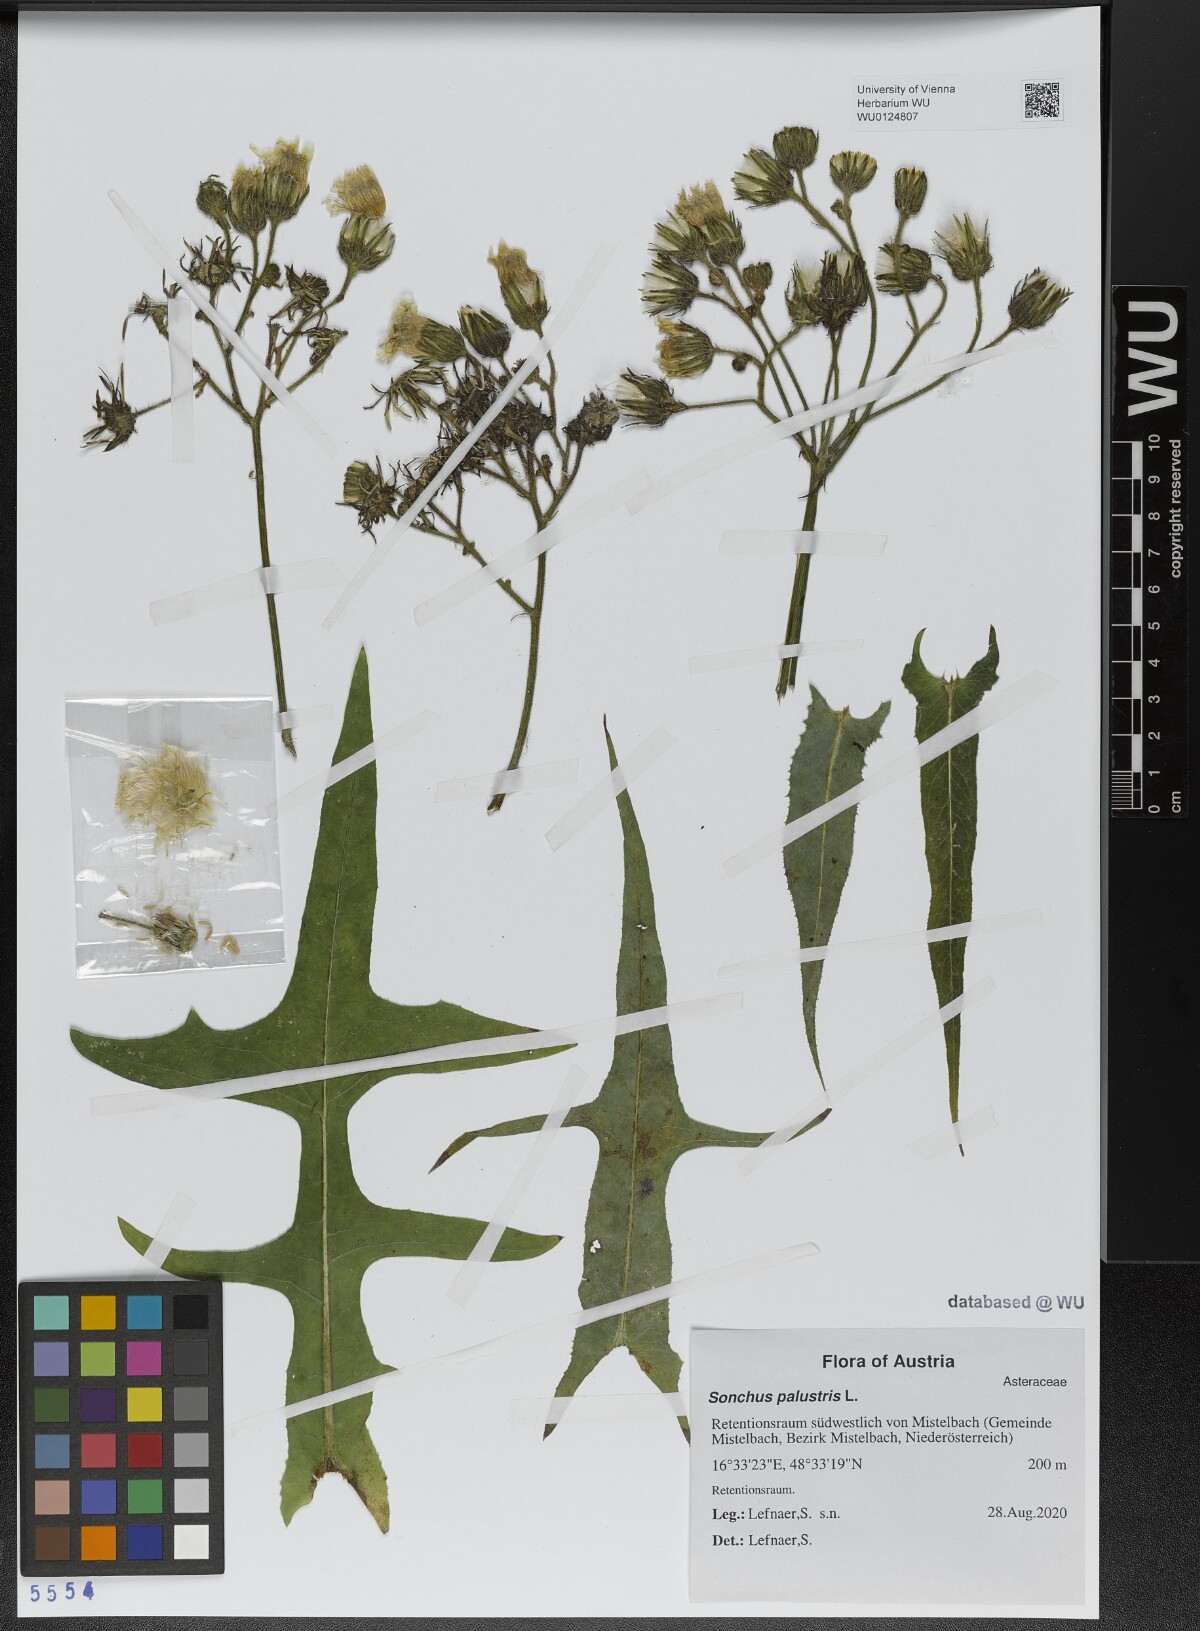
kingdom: Plantae
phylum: Tracheophyta
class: Magnoliopsida
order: Asterales
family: Asteraceae
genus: Sonchus
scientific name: Sonchus palustris
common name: Marsh sow-thistle
